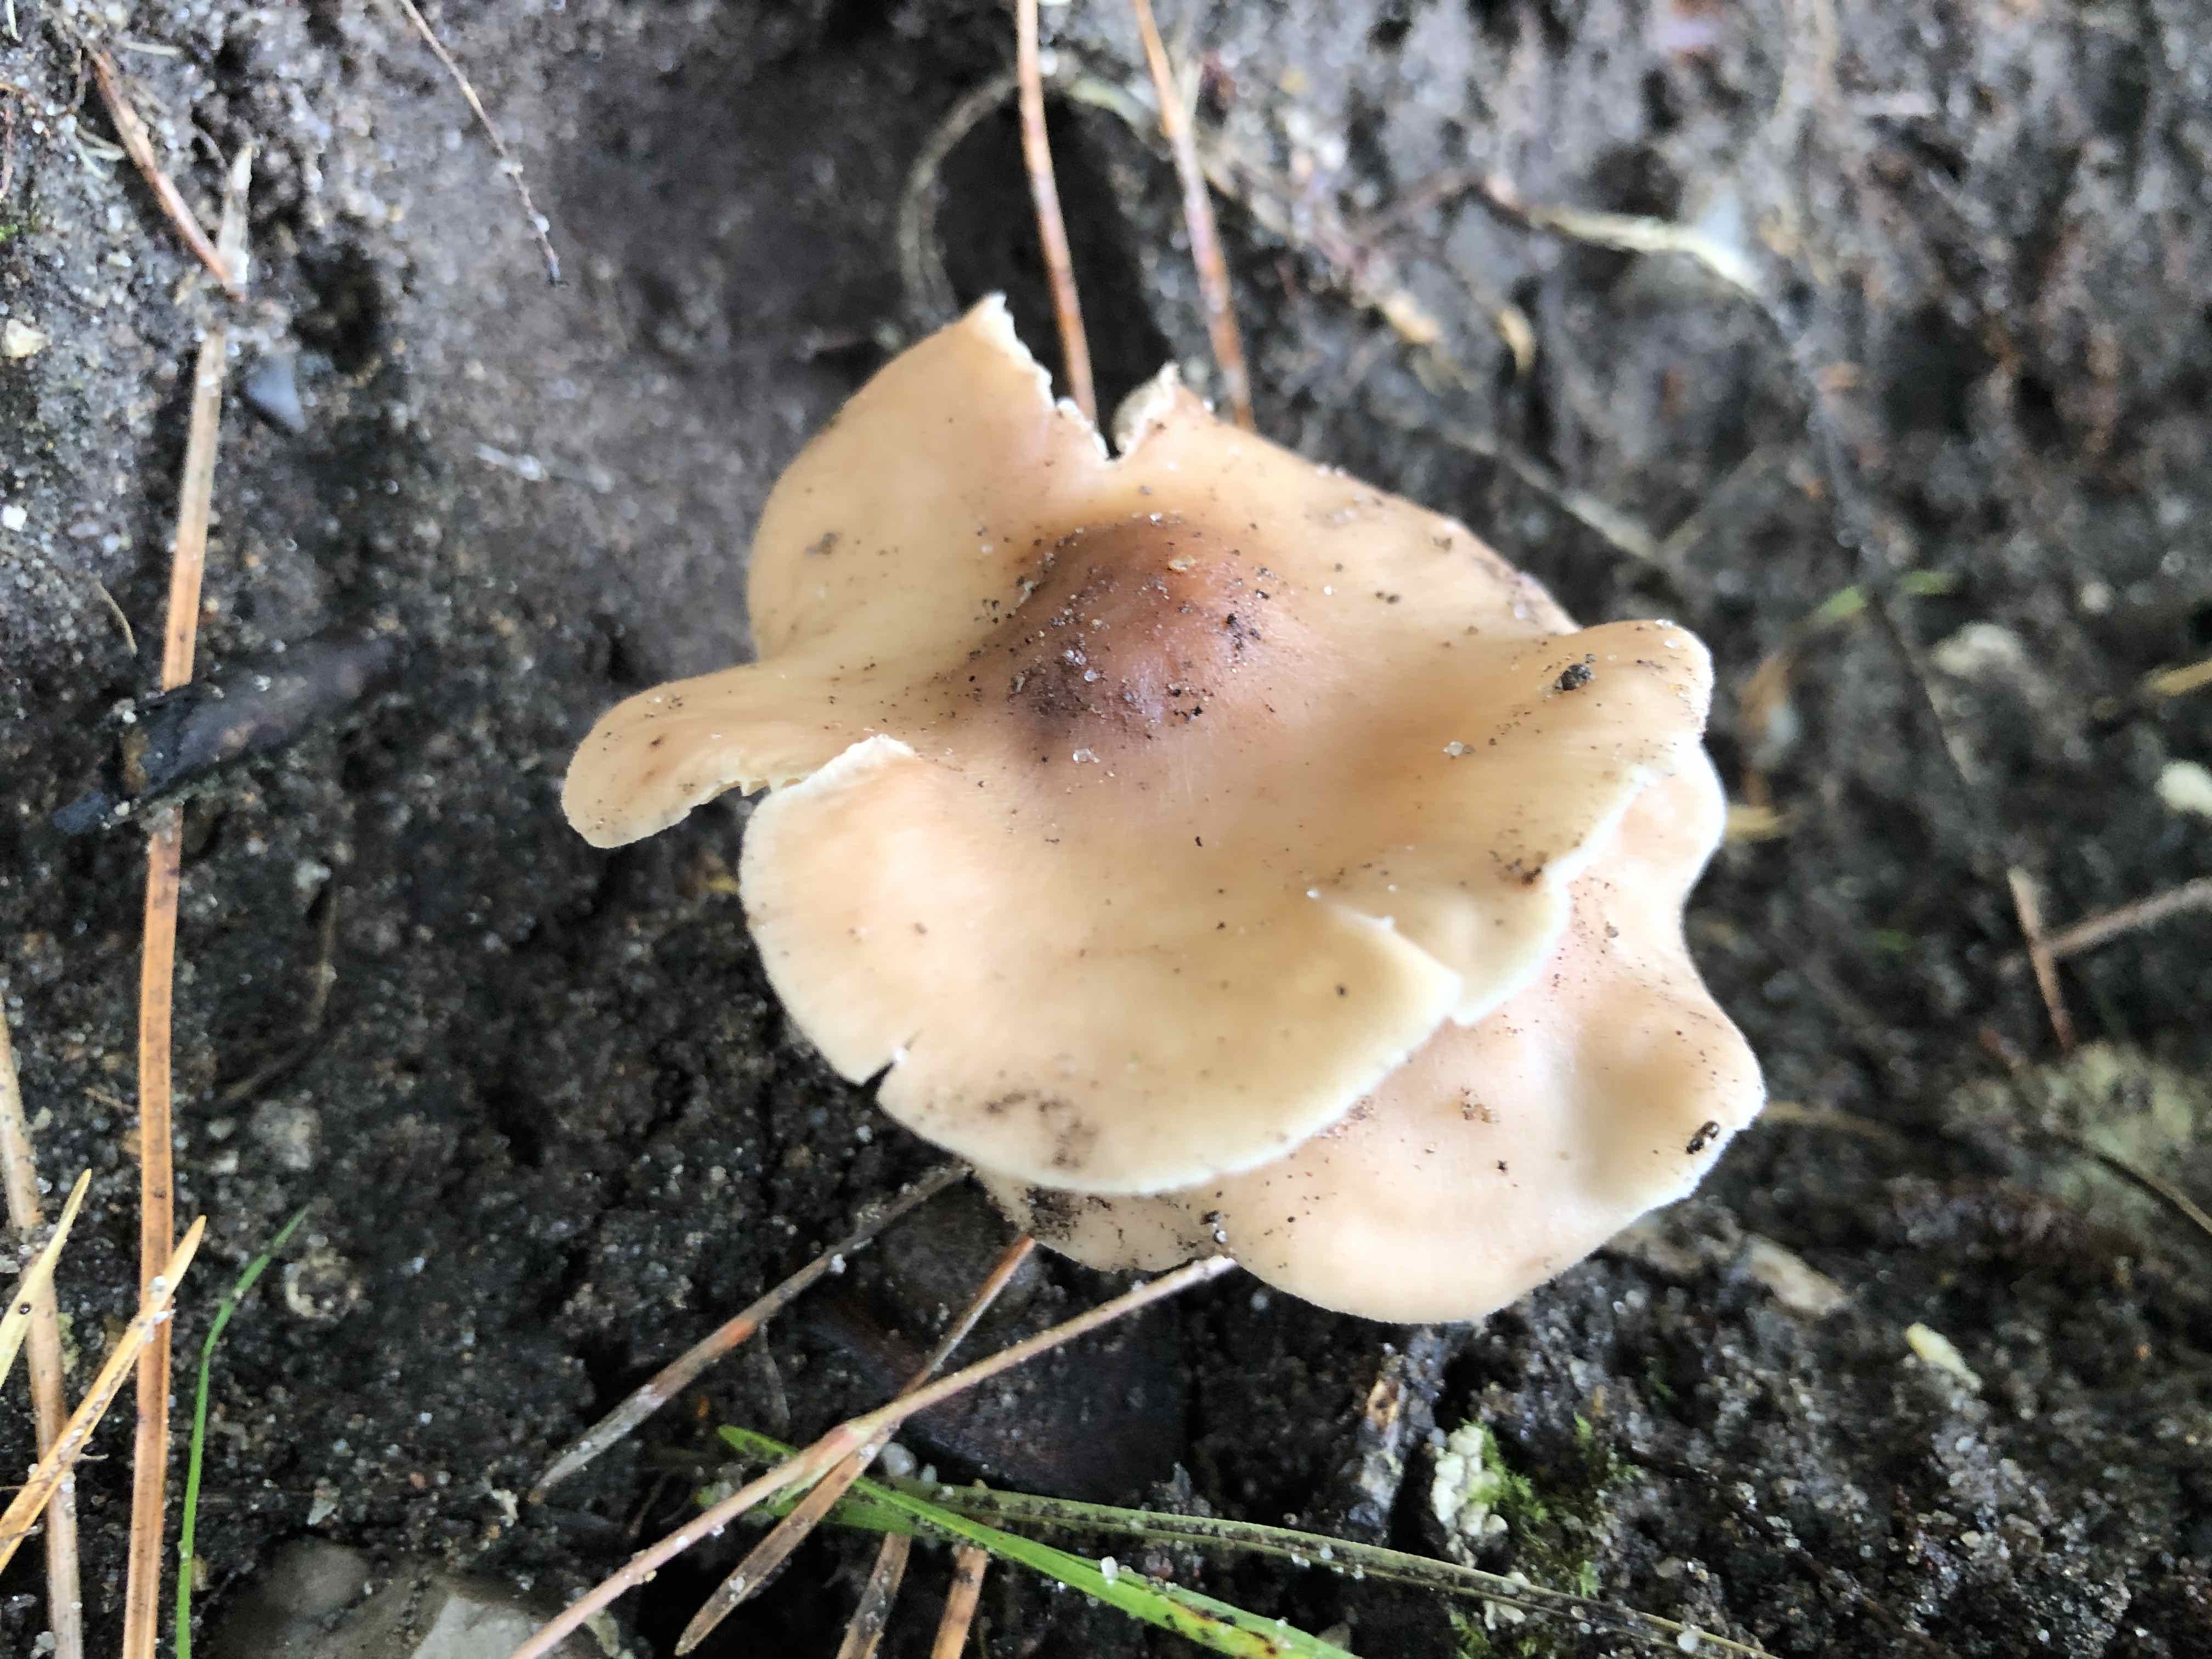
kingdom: Fungi
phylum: Basidiomycota
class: Agaricomycetes
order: Agaricales
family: Omphalotaceae
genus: Collybiopsis
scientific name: Collybiopsis confluens
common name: knippe-fladhat
